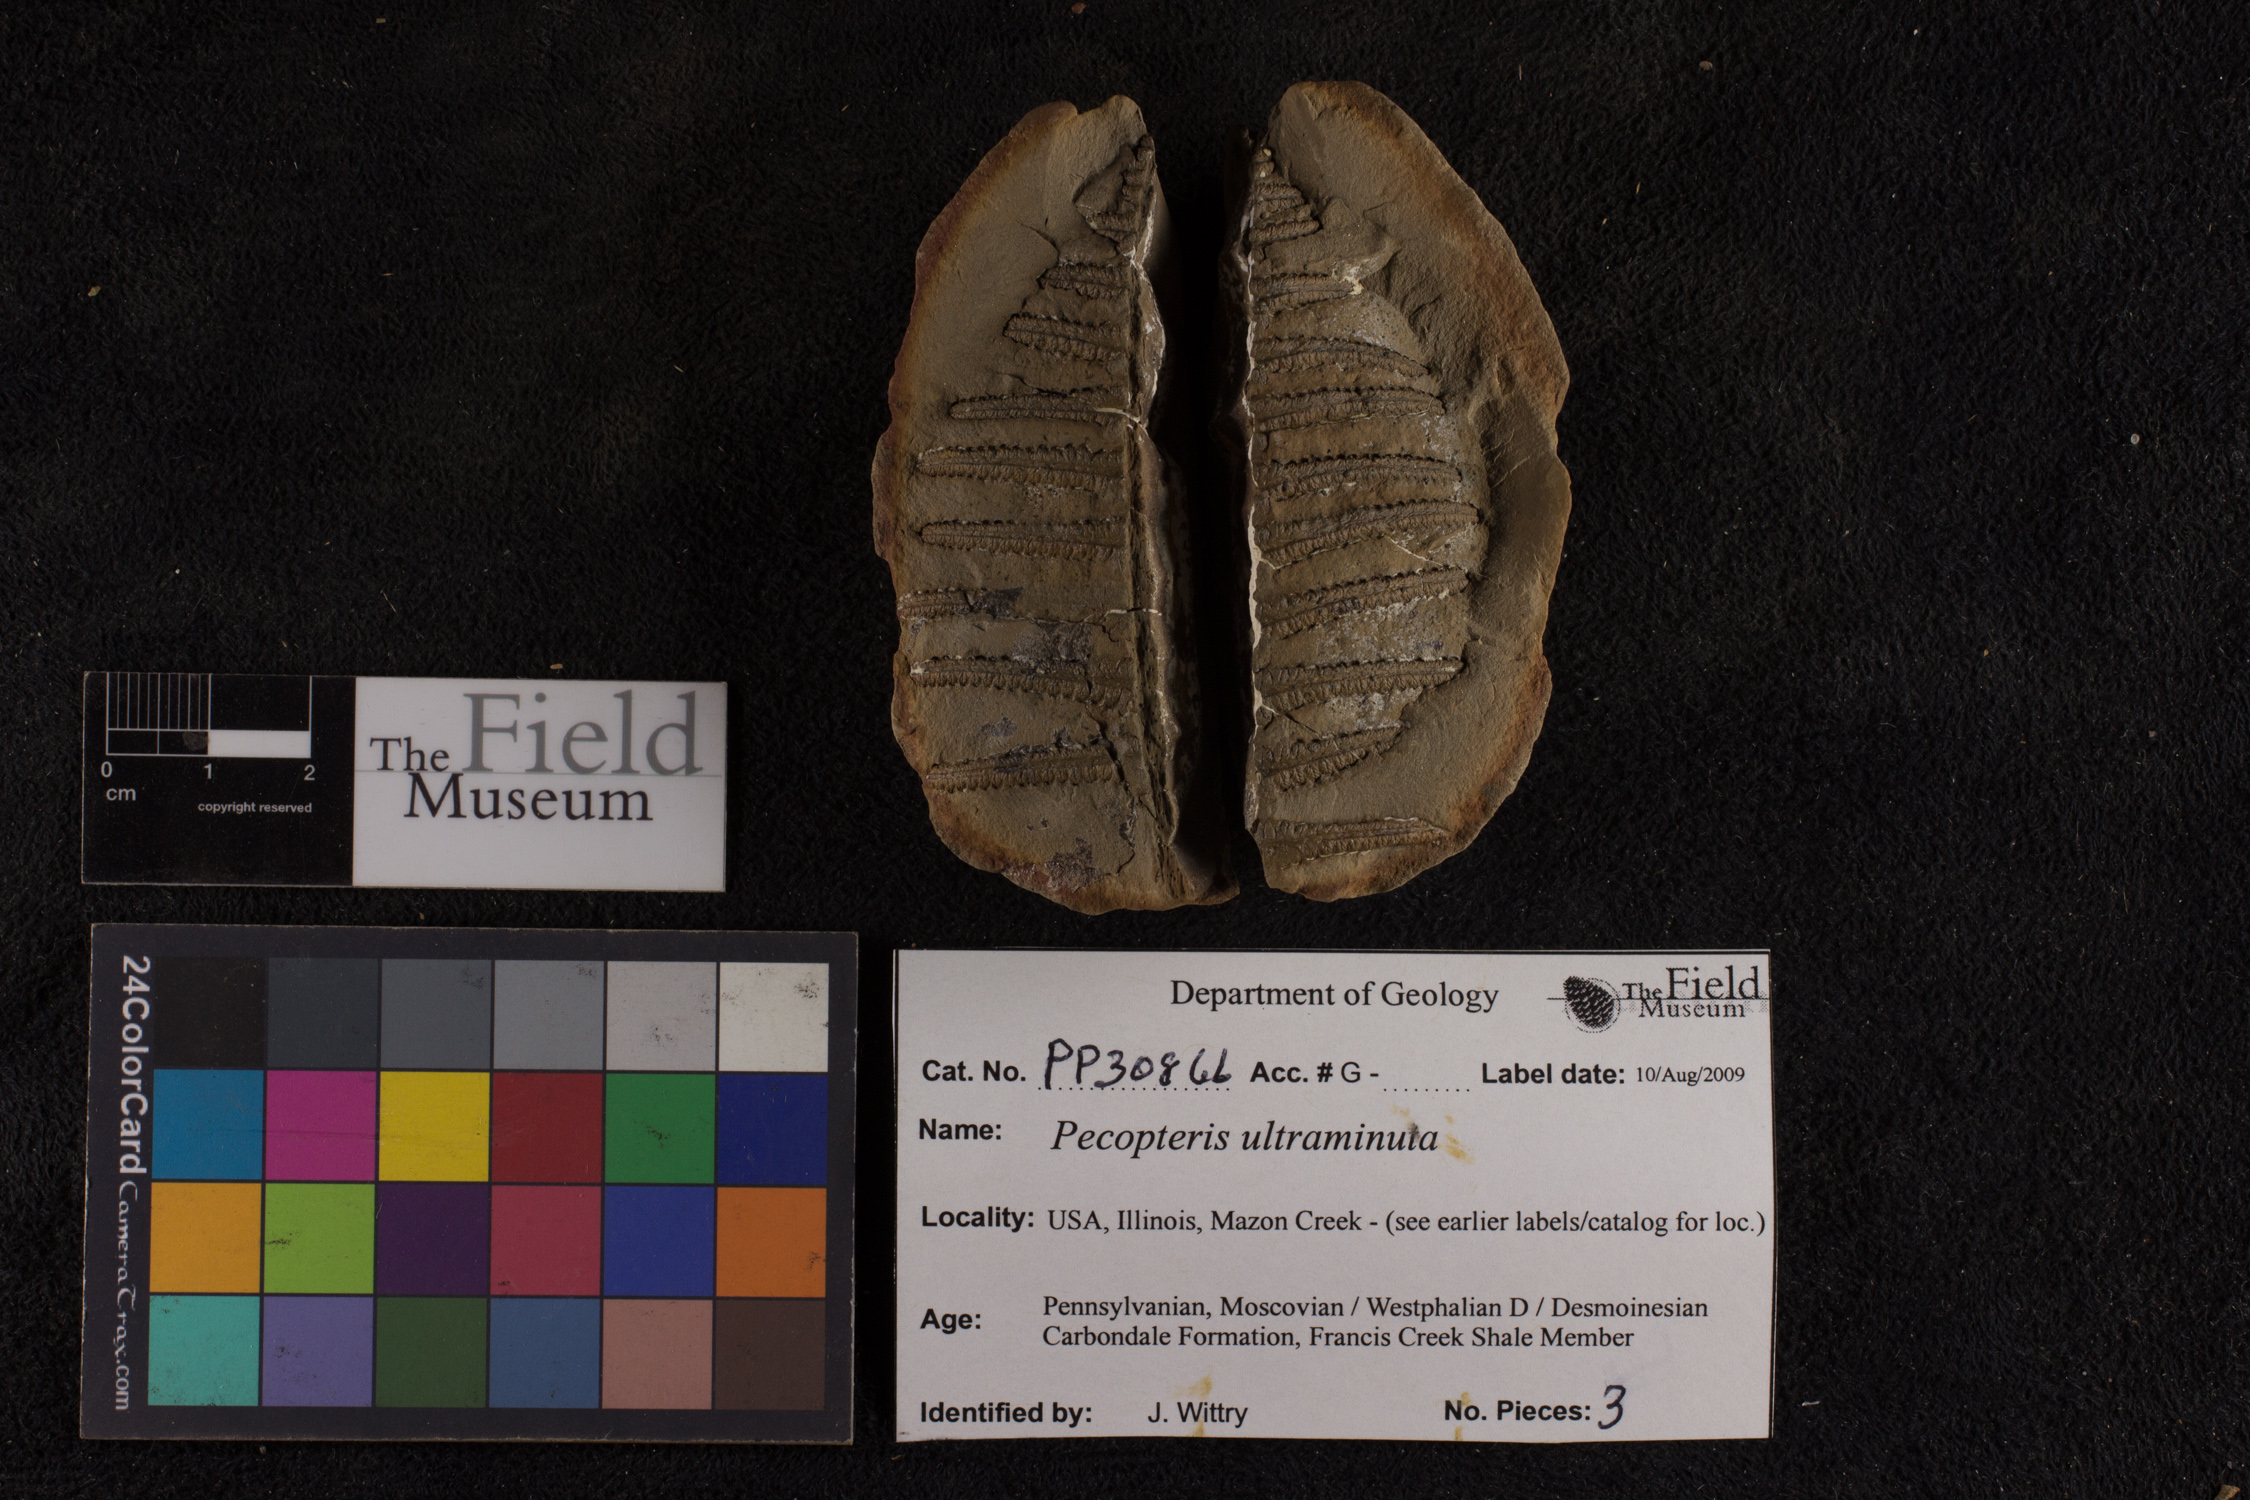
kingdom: Plantae
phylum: Tracheophyta
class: Polypodiopsida
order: Marattiales
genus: Cyathocarpus
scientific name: Cyathocarpus
